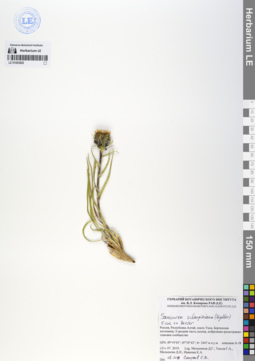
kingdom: Plantae
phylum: Tracheophyta
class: Magnoliopsida
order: Asterales
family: Asteraceae
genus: Saussurea
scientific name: Saussurea schanginiana
